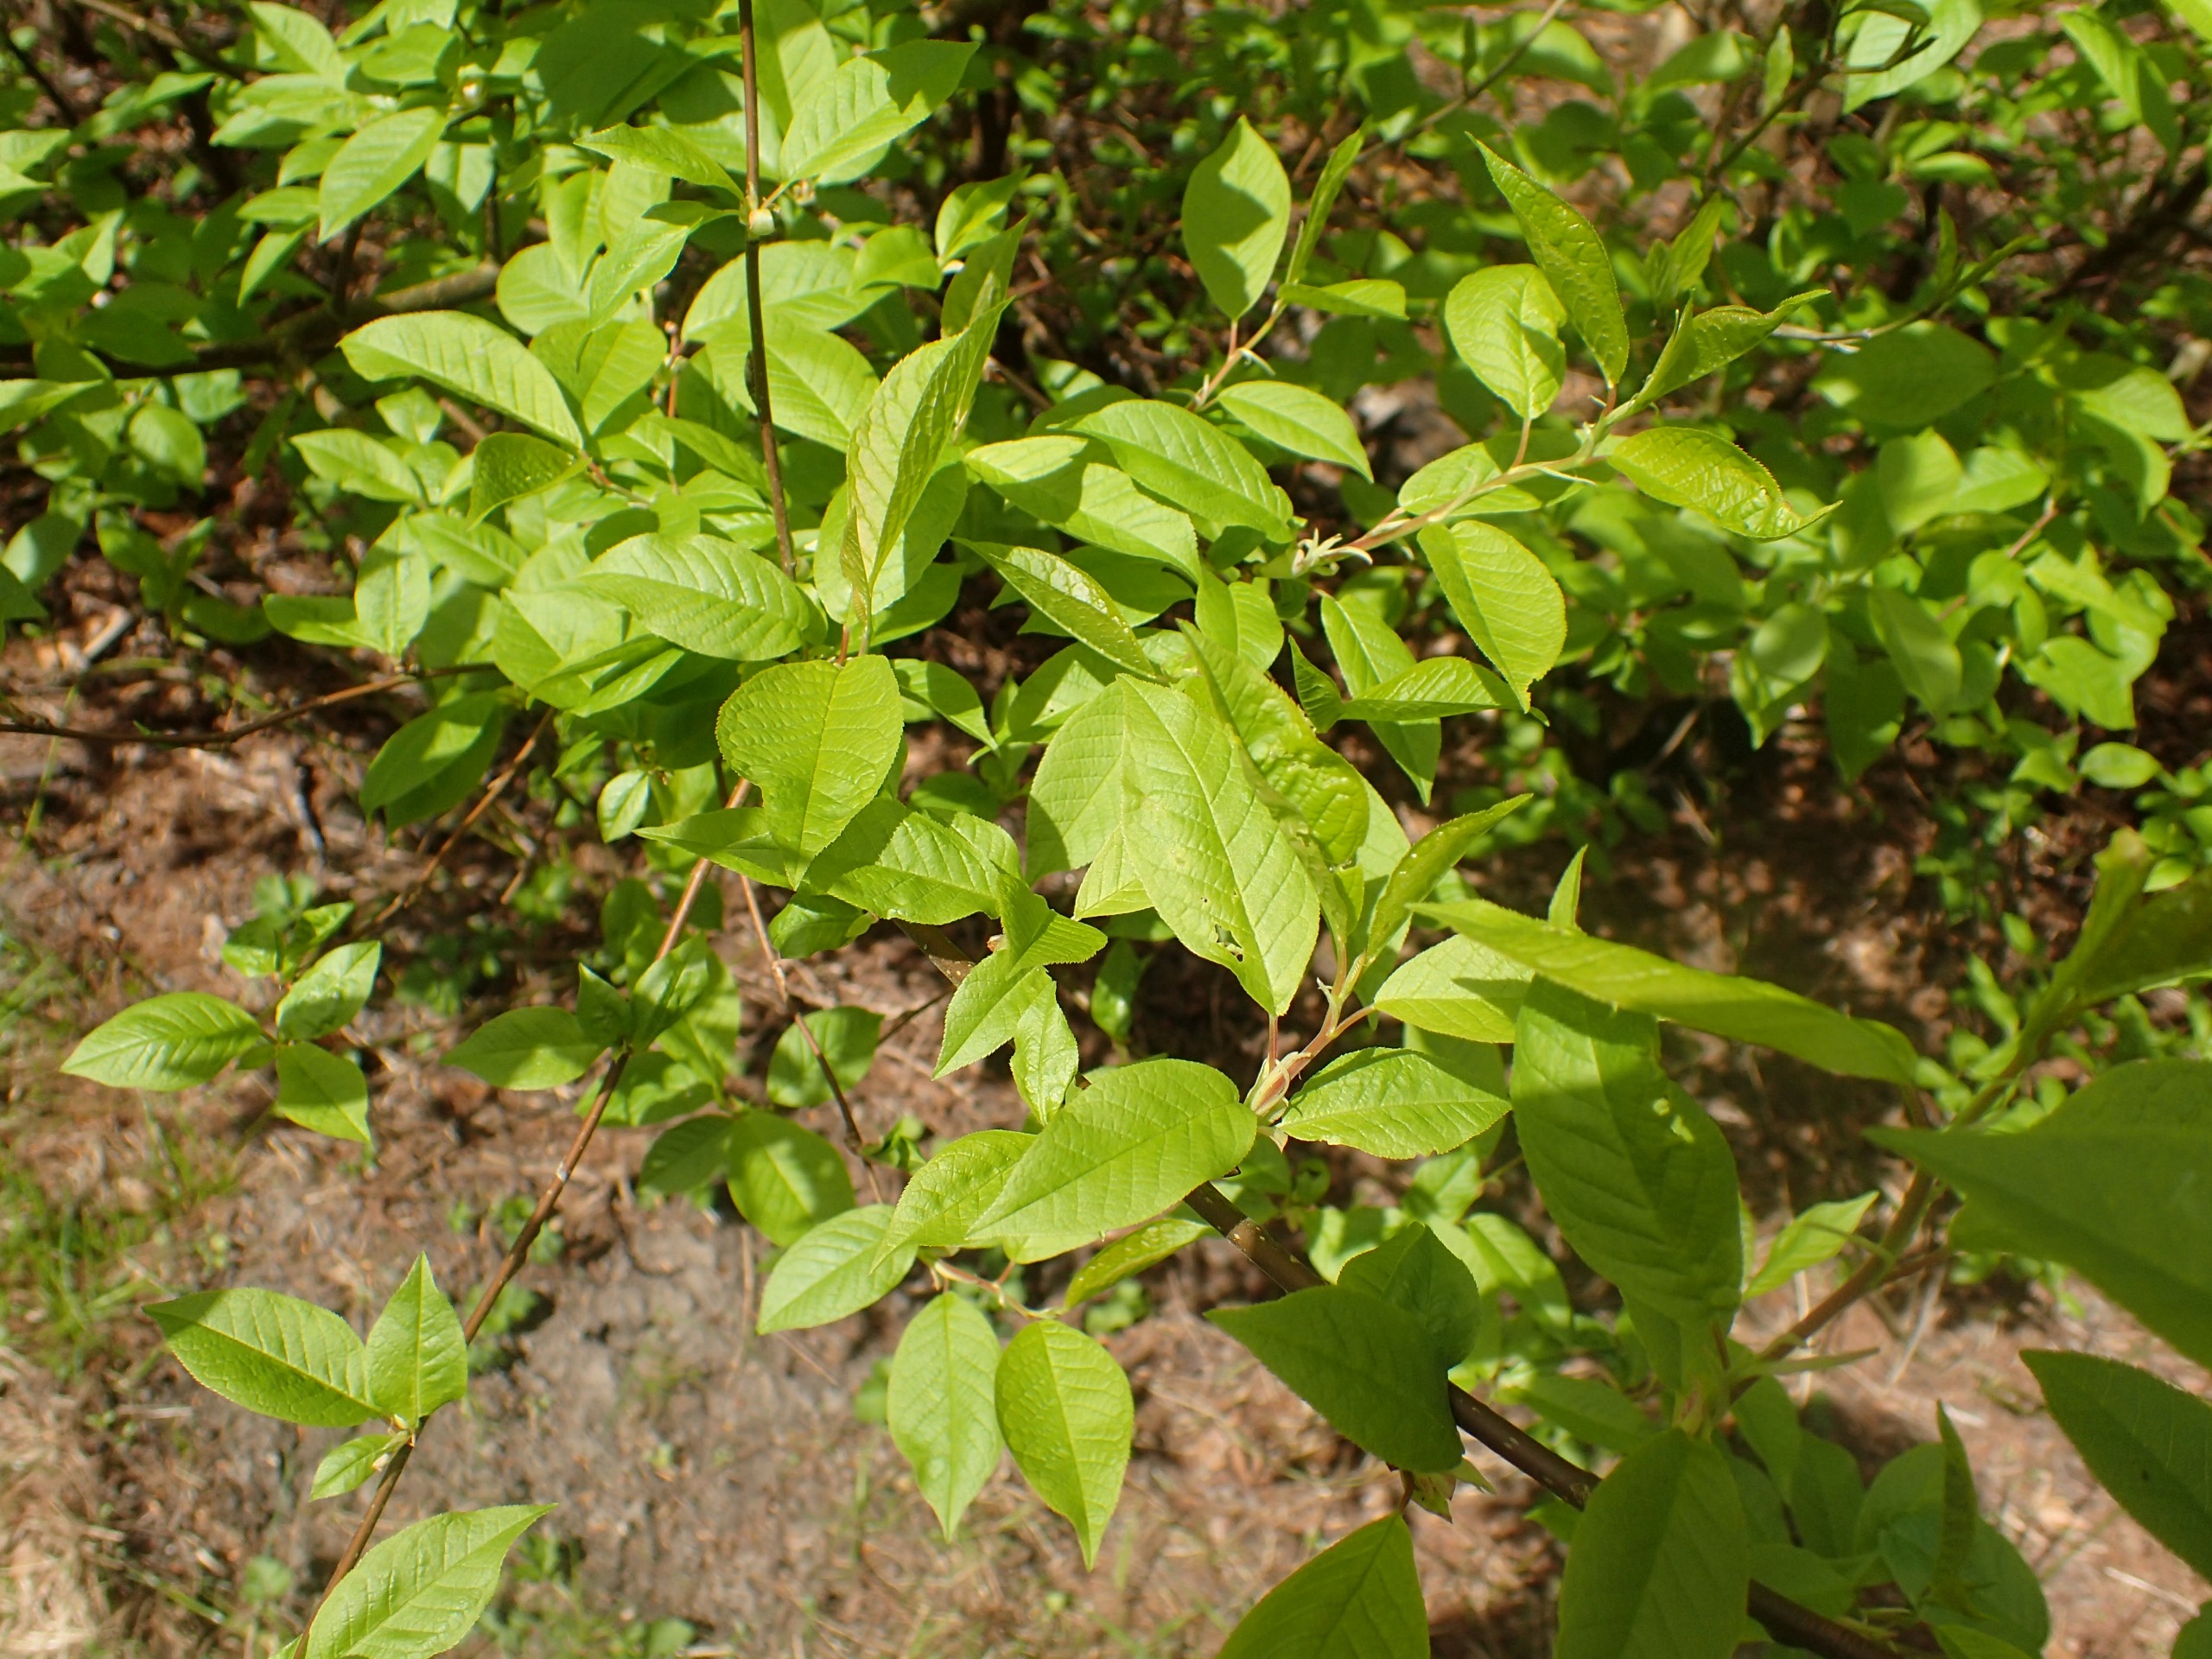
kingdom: Plantae
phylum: Tracheophyta
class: Magnoliopsida
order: Rosales
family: Rosaceae
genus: Prunus
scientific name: Prunus padus
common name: Almindelig hæg
